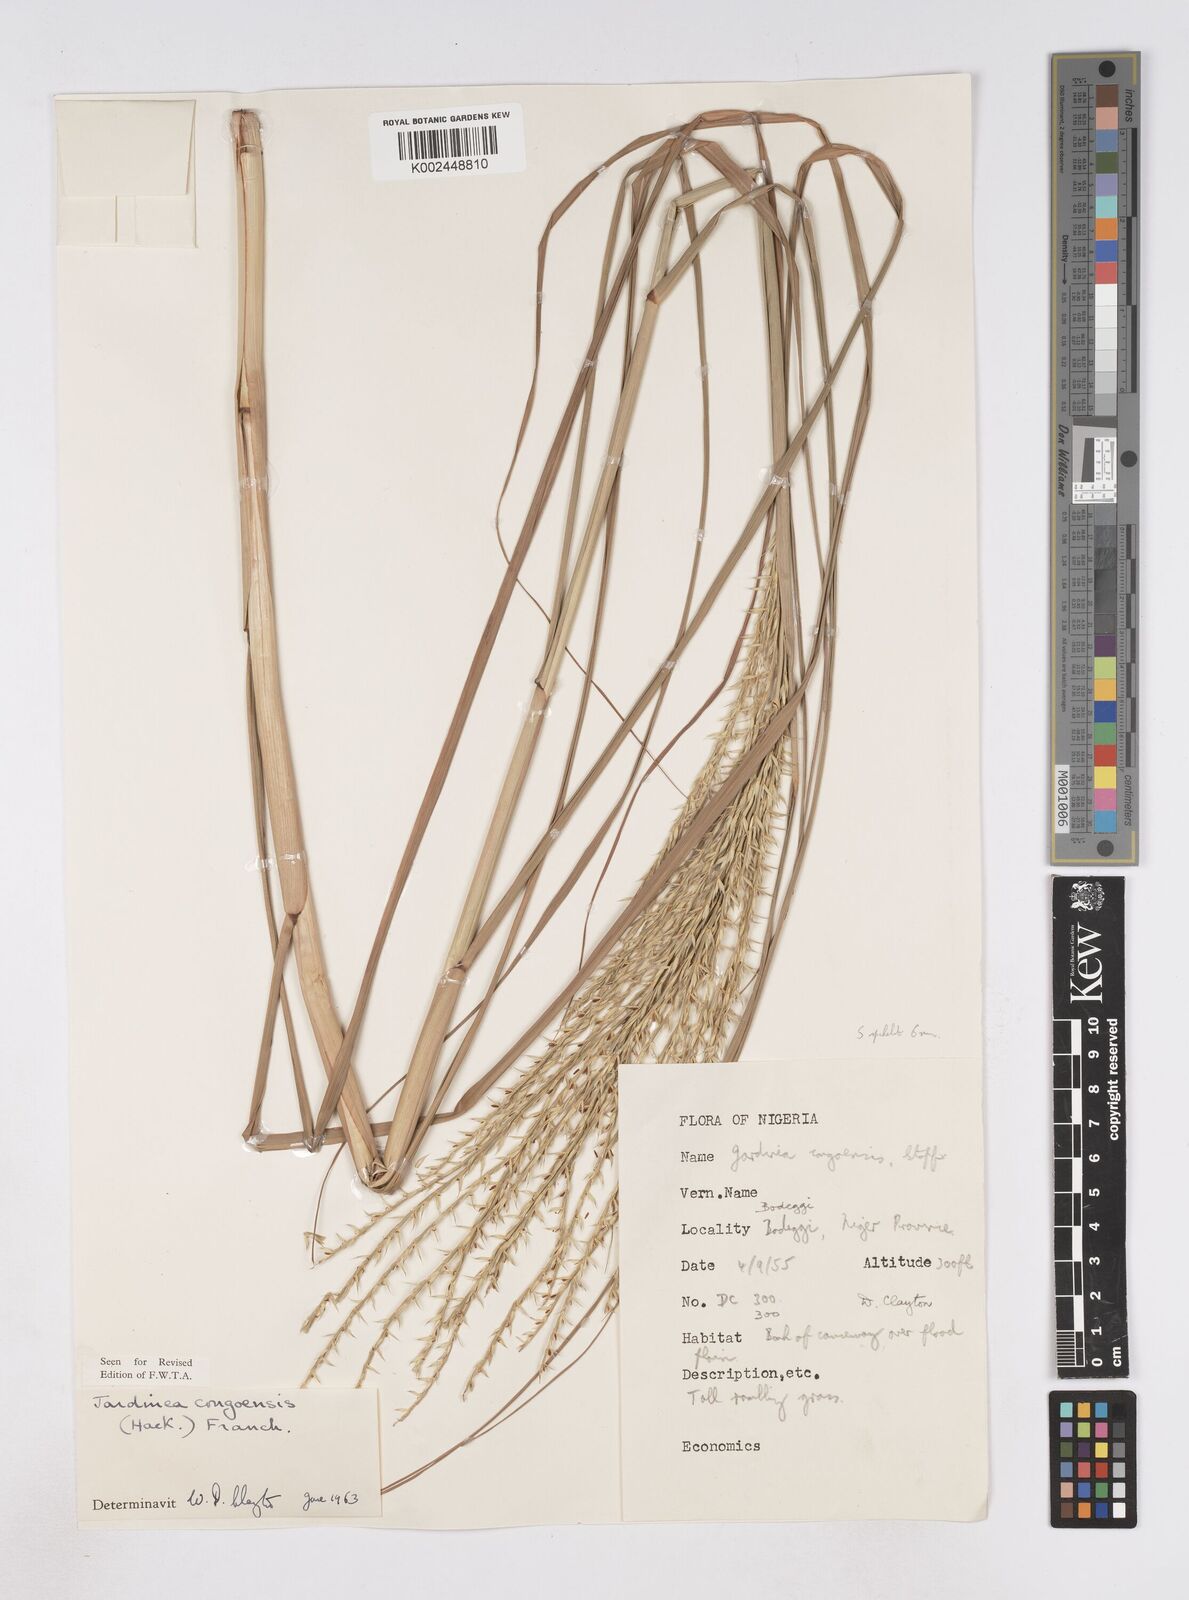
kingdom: Plantae
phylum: Tracheophyta
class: Liliopsida
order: Poales
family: Poaceae
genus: Phacelurus
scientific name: Phacelurus gabonensis
